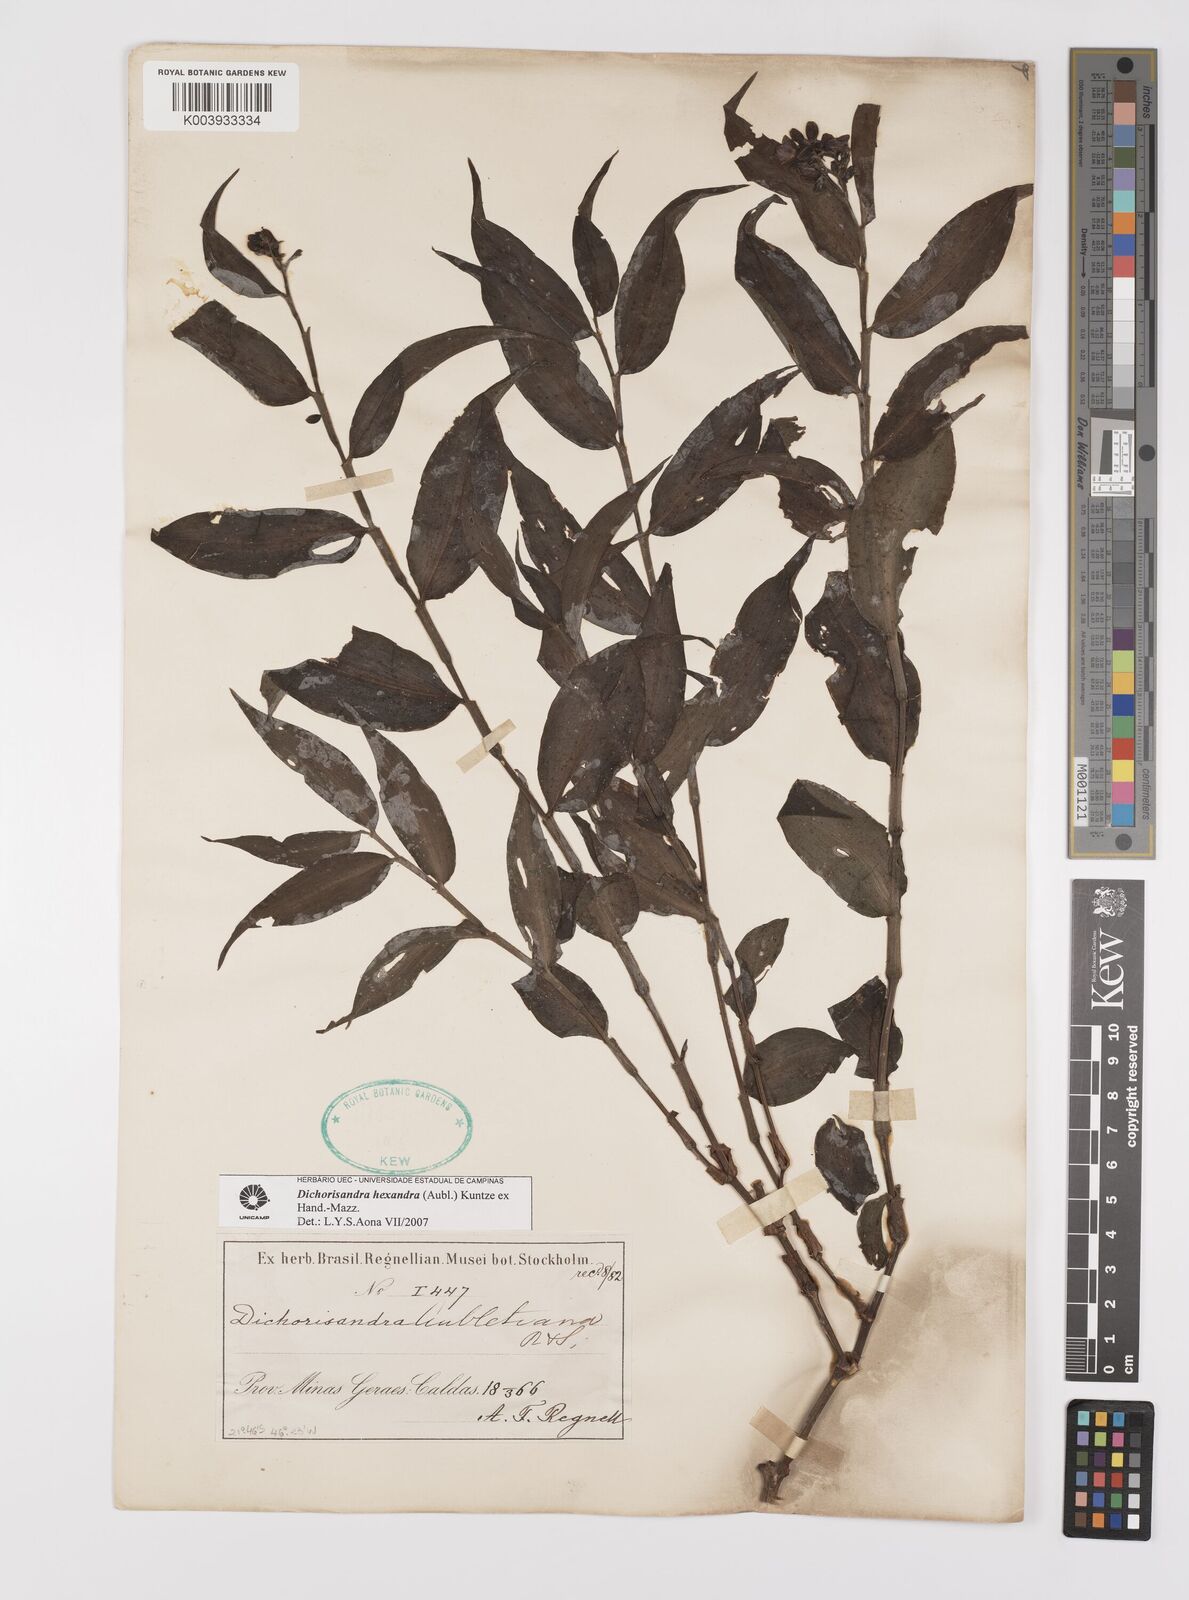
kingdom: Plantae
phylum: Tracheophyta
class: Liliopsida
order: Commelinales
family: Commelinaceae
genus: Dichorisandra
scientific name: Dichorisandra
